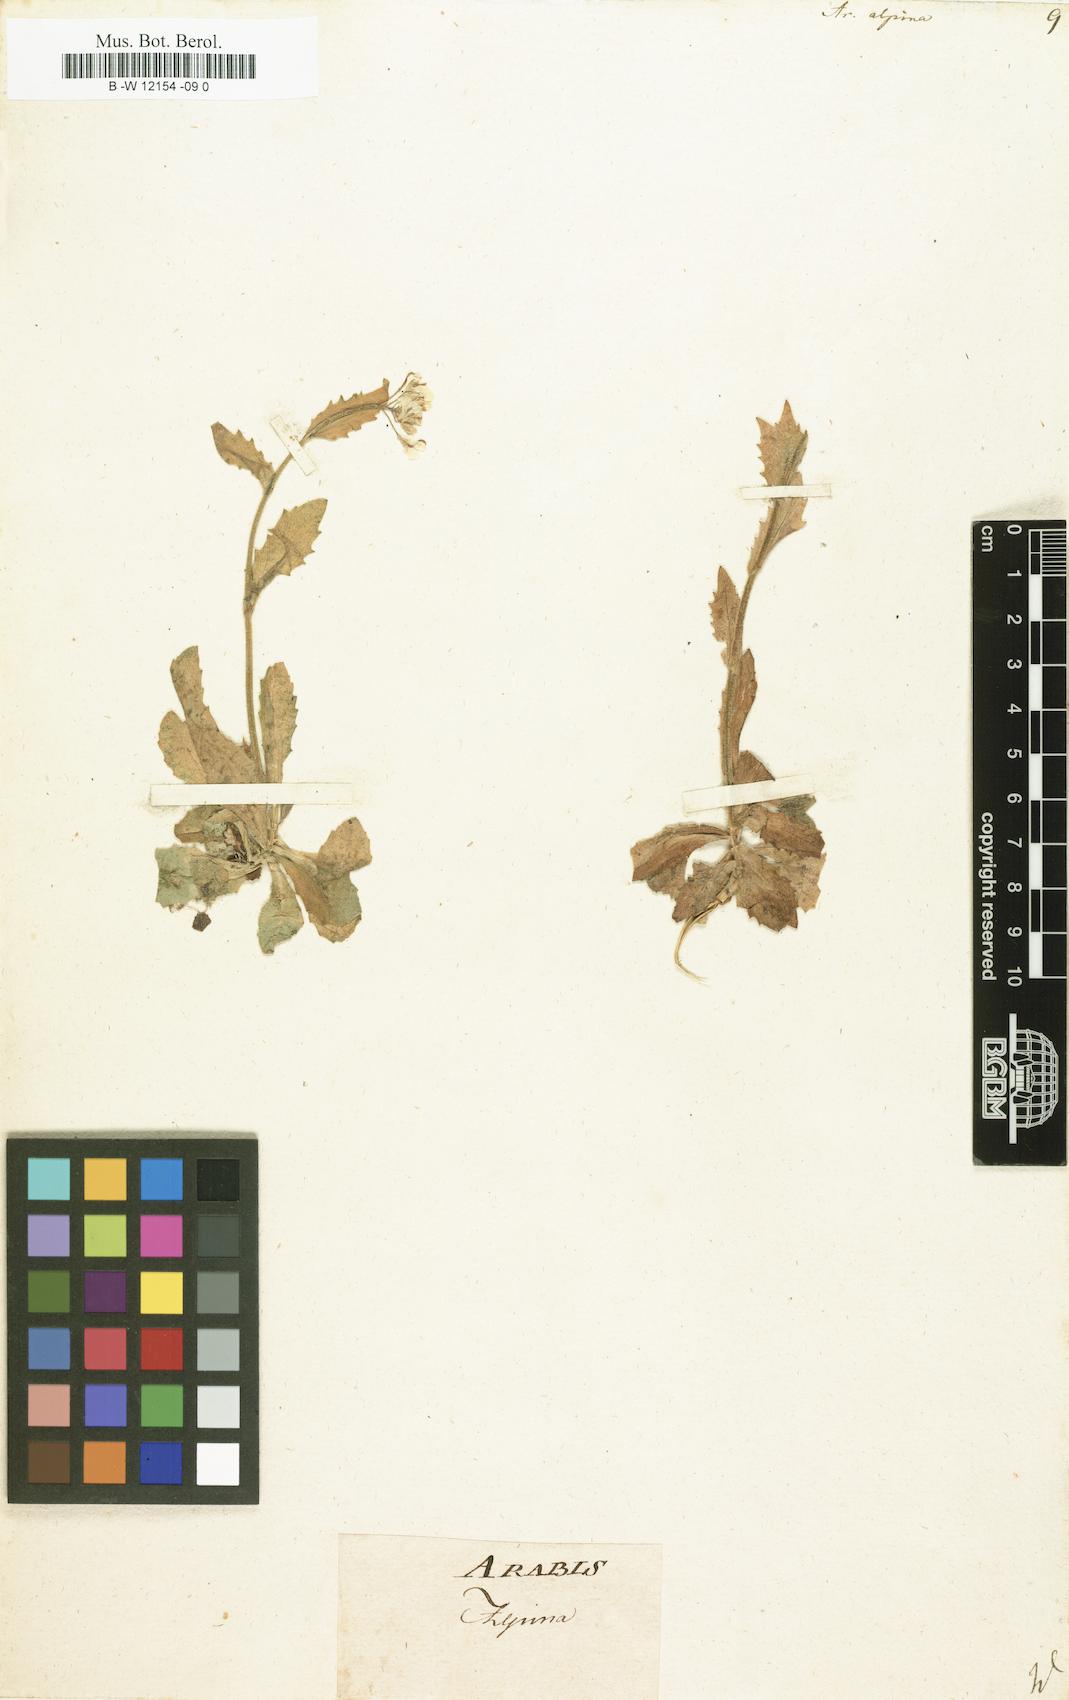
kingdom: Plantae
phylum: Tracheophyta
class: Magnoliopsida
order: Brassicales
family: Brassicaceae
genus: Arabis
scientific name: Arabis alpina
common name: Alpine rock-cress
